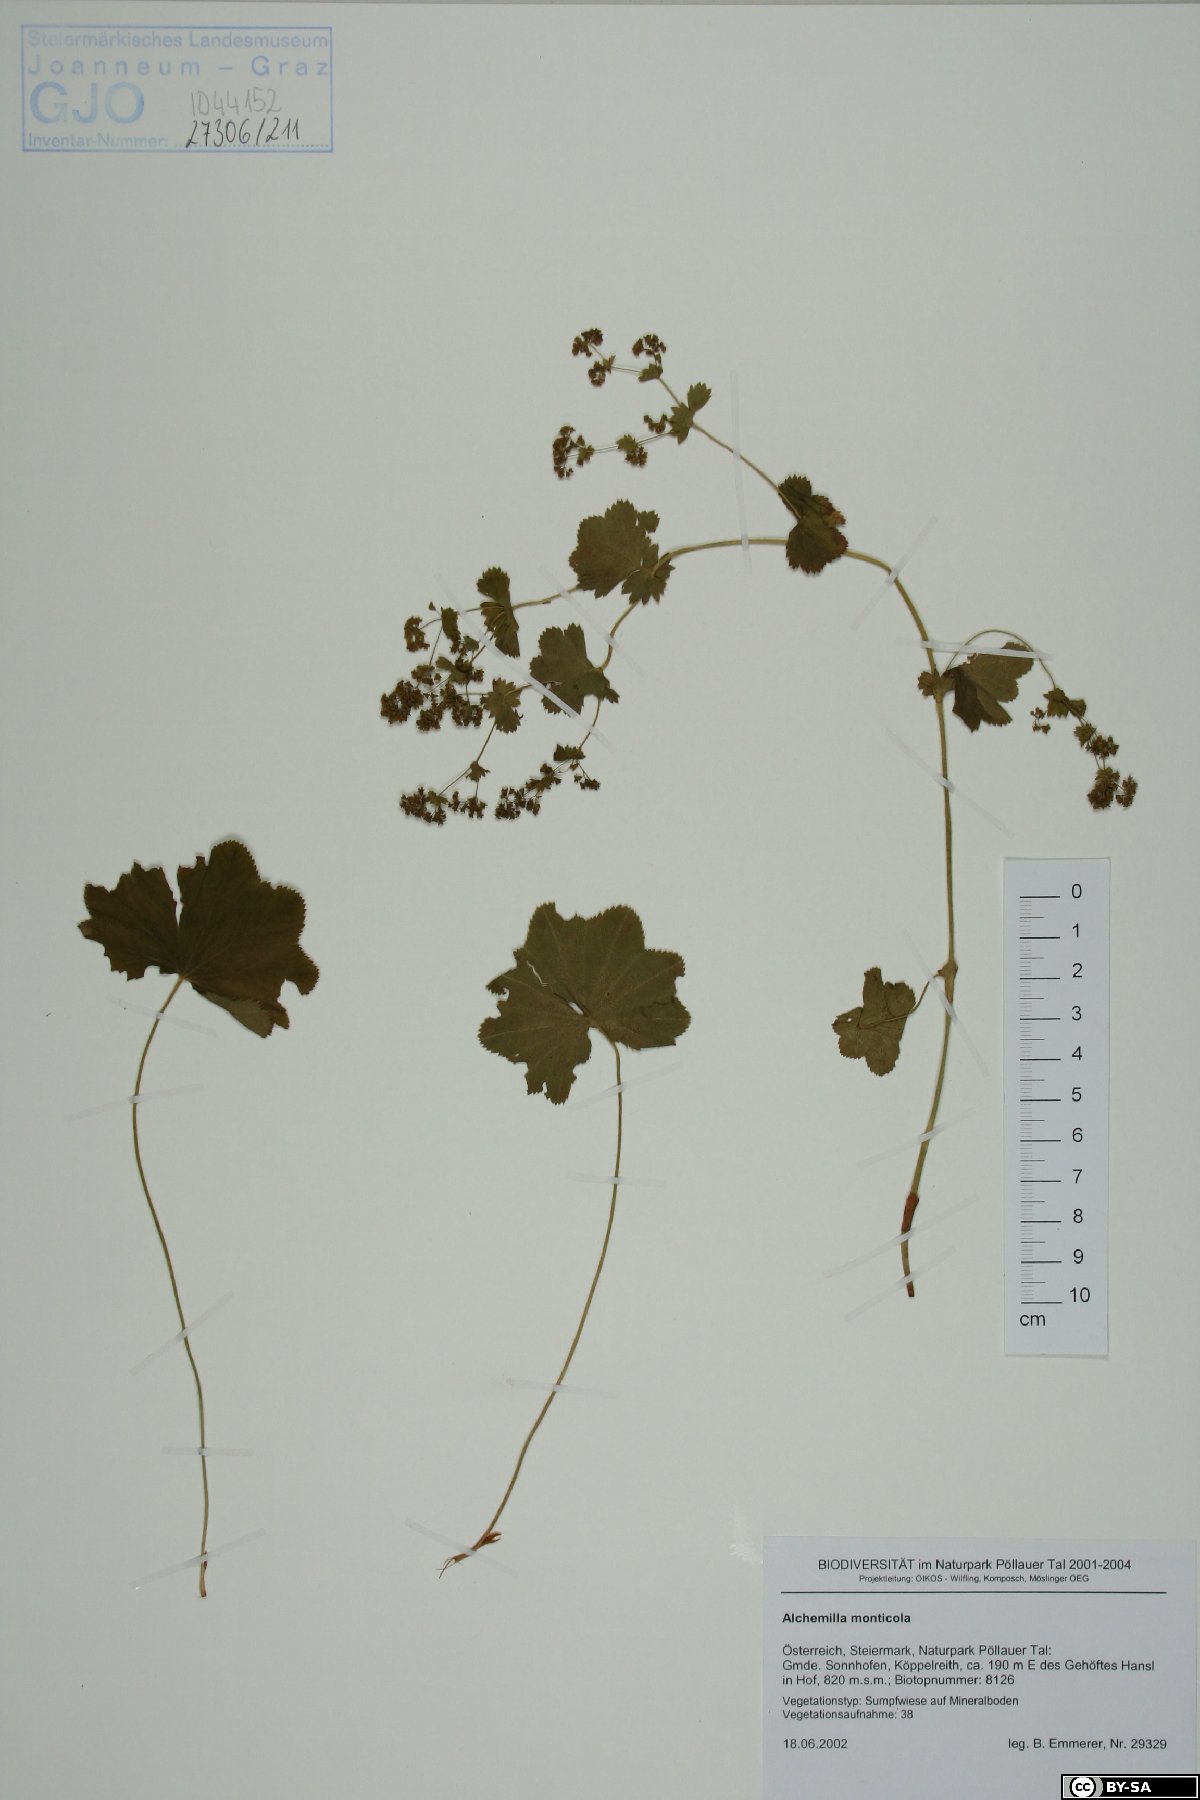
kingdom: Plantae
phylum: Tracheophyta
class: Magnoliopsida
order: Rosales
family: Rosaceae
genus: Alchemilla
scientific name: Alchemilla monticola
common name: Hairy lady's mantle
